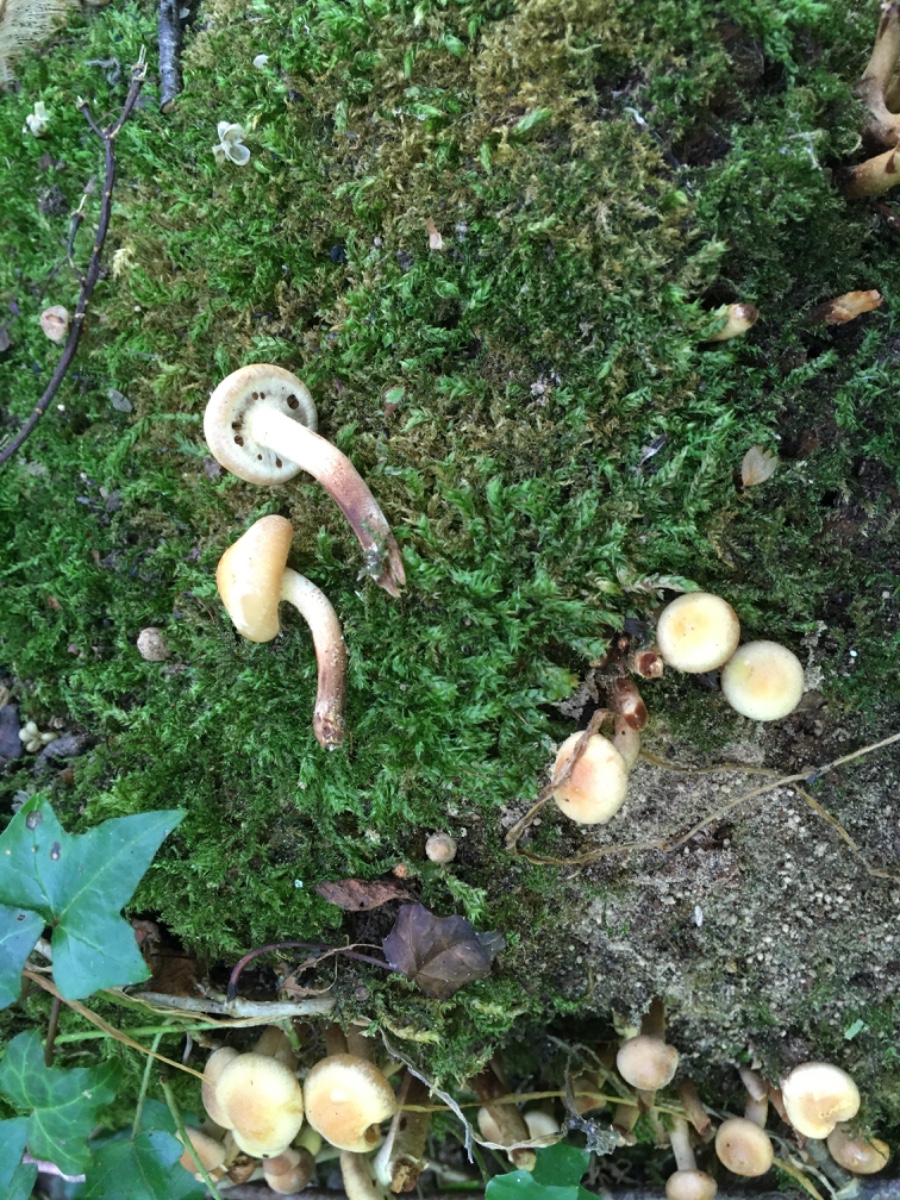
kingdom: Fungi
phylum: Basidiomycota
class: Agaricomycetes
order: Agaricales
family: Strophariaceae
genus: Kuehneromyces
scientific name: Kuehneromyces mutabilis
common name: foranderlig skælhat
